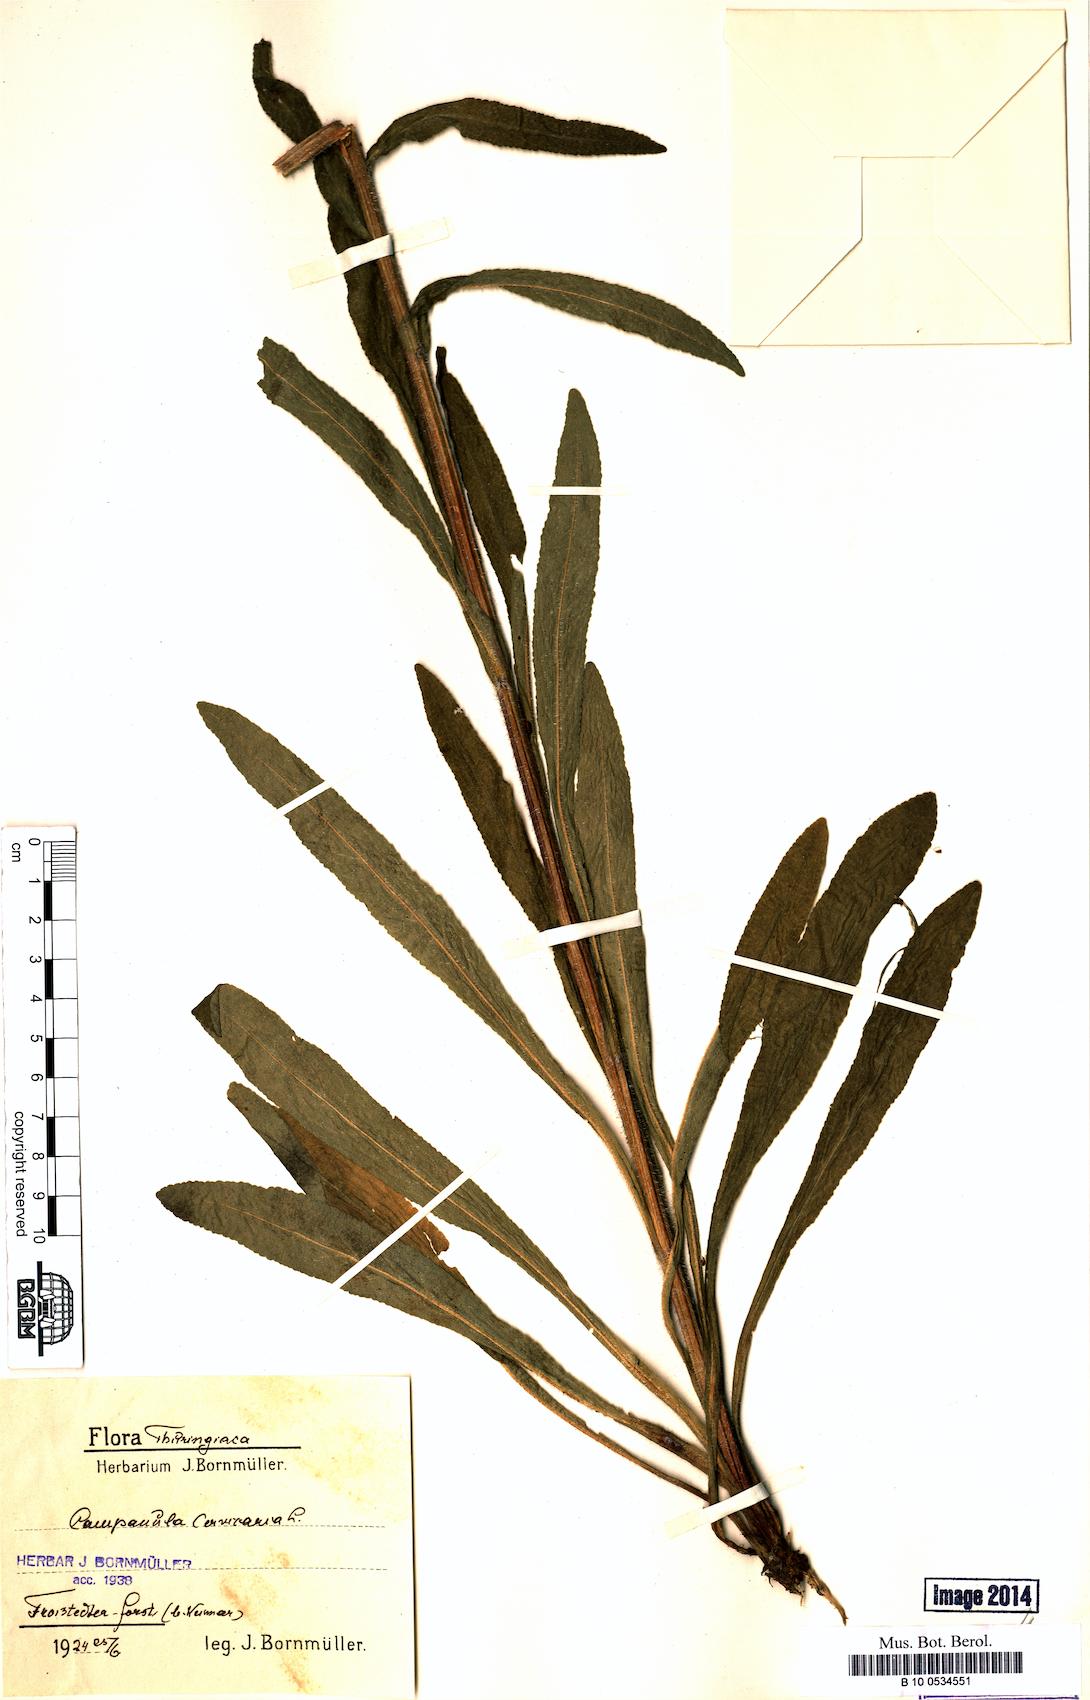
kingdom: Plantae
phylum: Tracheophyta
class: Magnoliopsida
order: Asterales
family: Campanulaceae
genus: Campanula
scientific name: Campanula cervicaria
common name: Bristly bellflower
